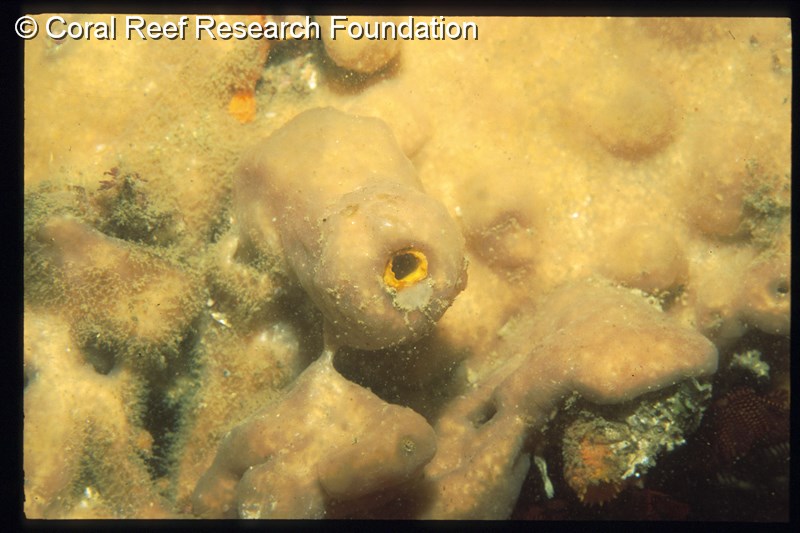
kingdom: Animalia
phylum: Chordata
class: Ascidiacea
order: Aplousobranchia
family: Polycitoridae
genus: Cystodytes
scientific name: Cystodytes dellechiajei
